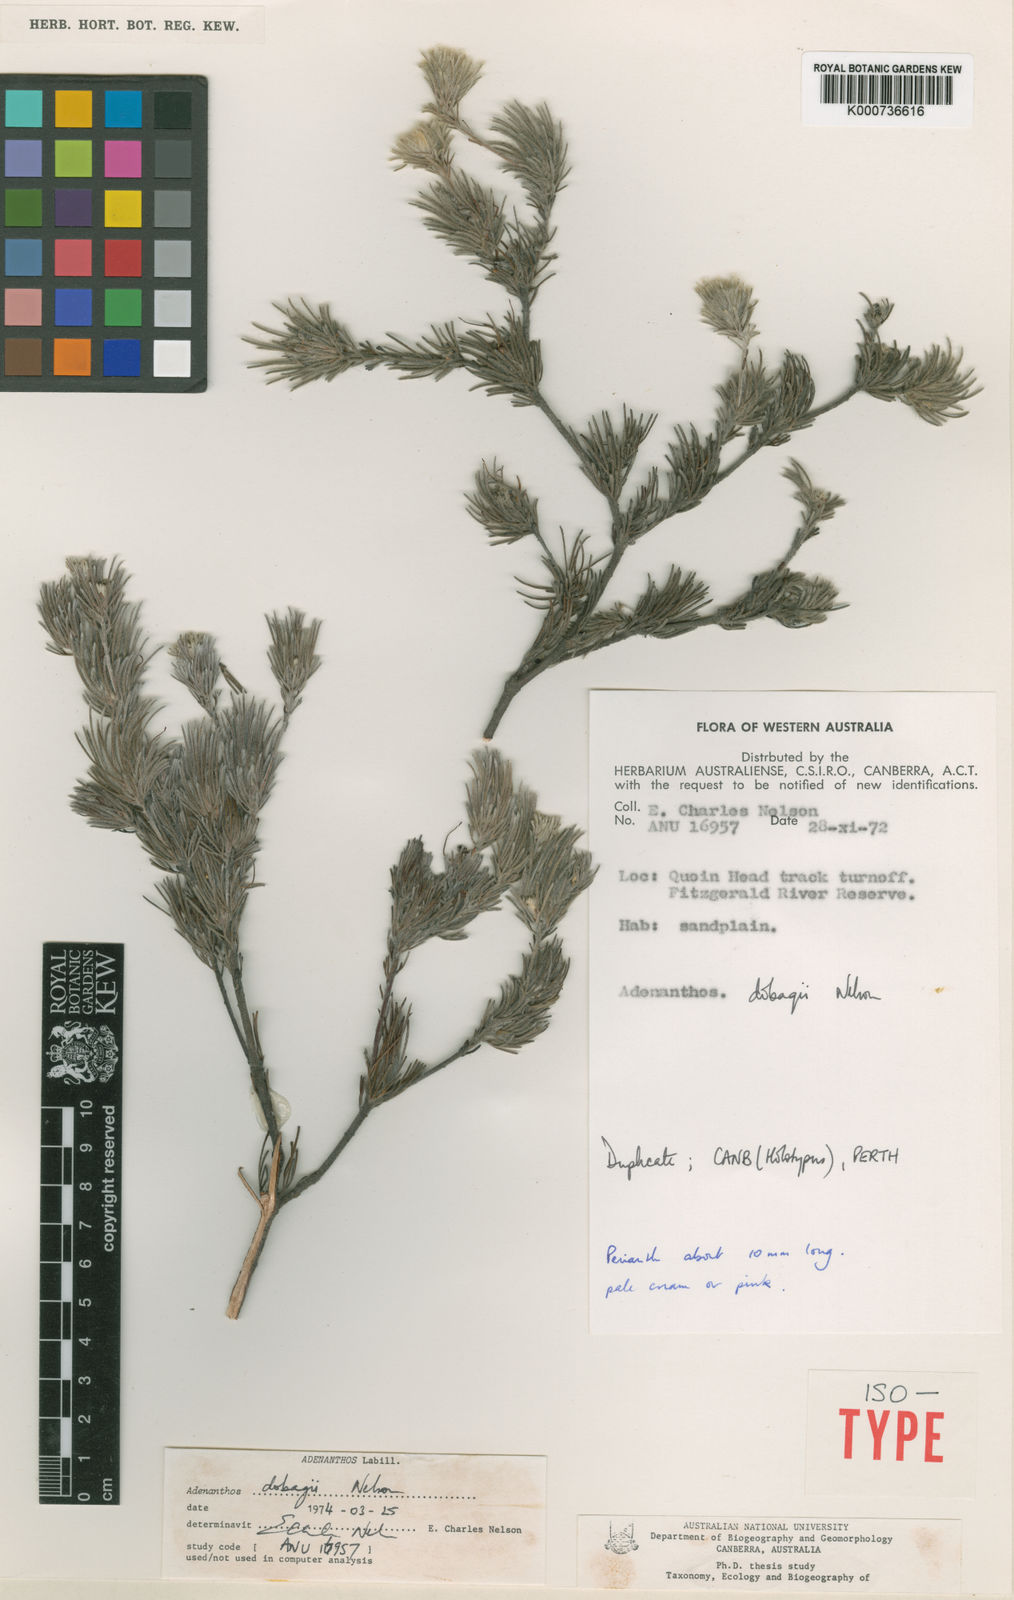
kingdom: Plantae
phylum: Tracheophyta
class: Magnoliopsida
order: Proteales
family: Proteaceae
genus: Adenanthos
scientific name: Adenanthos dobagii
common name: Fitzgerald woollybush
